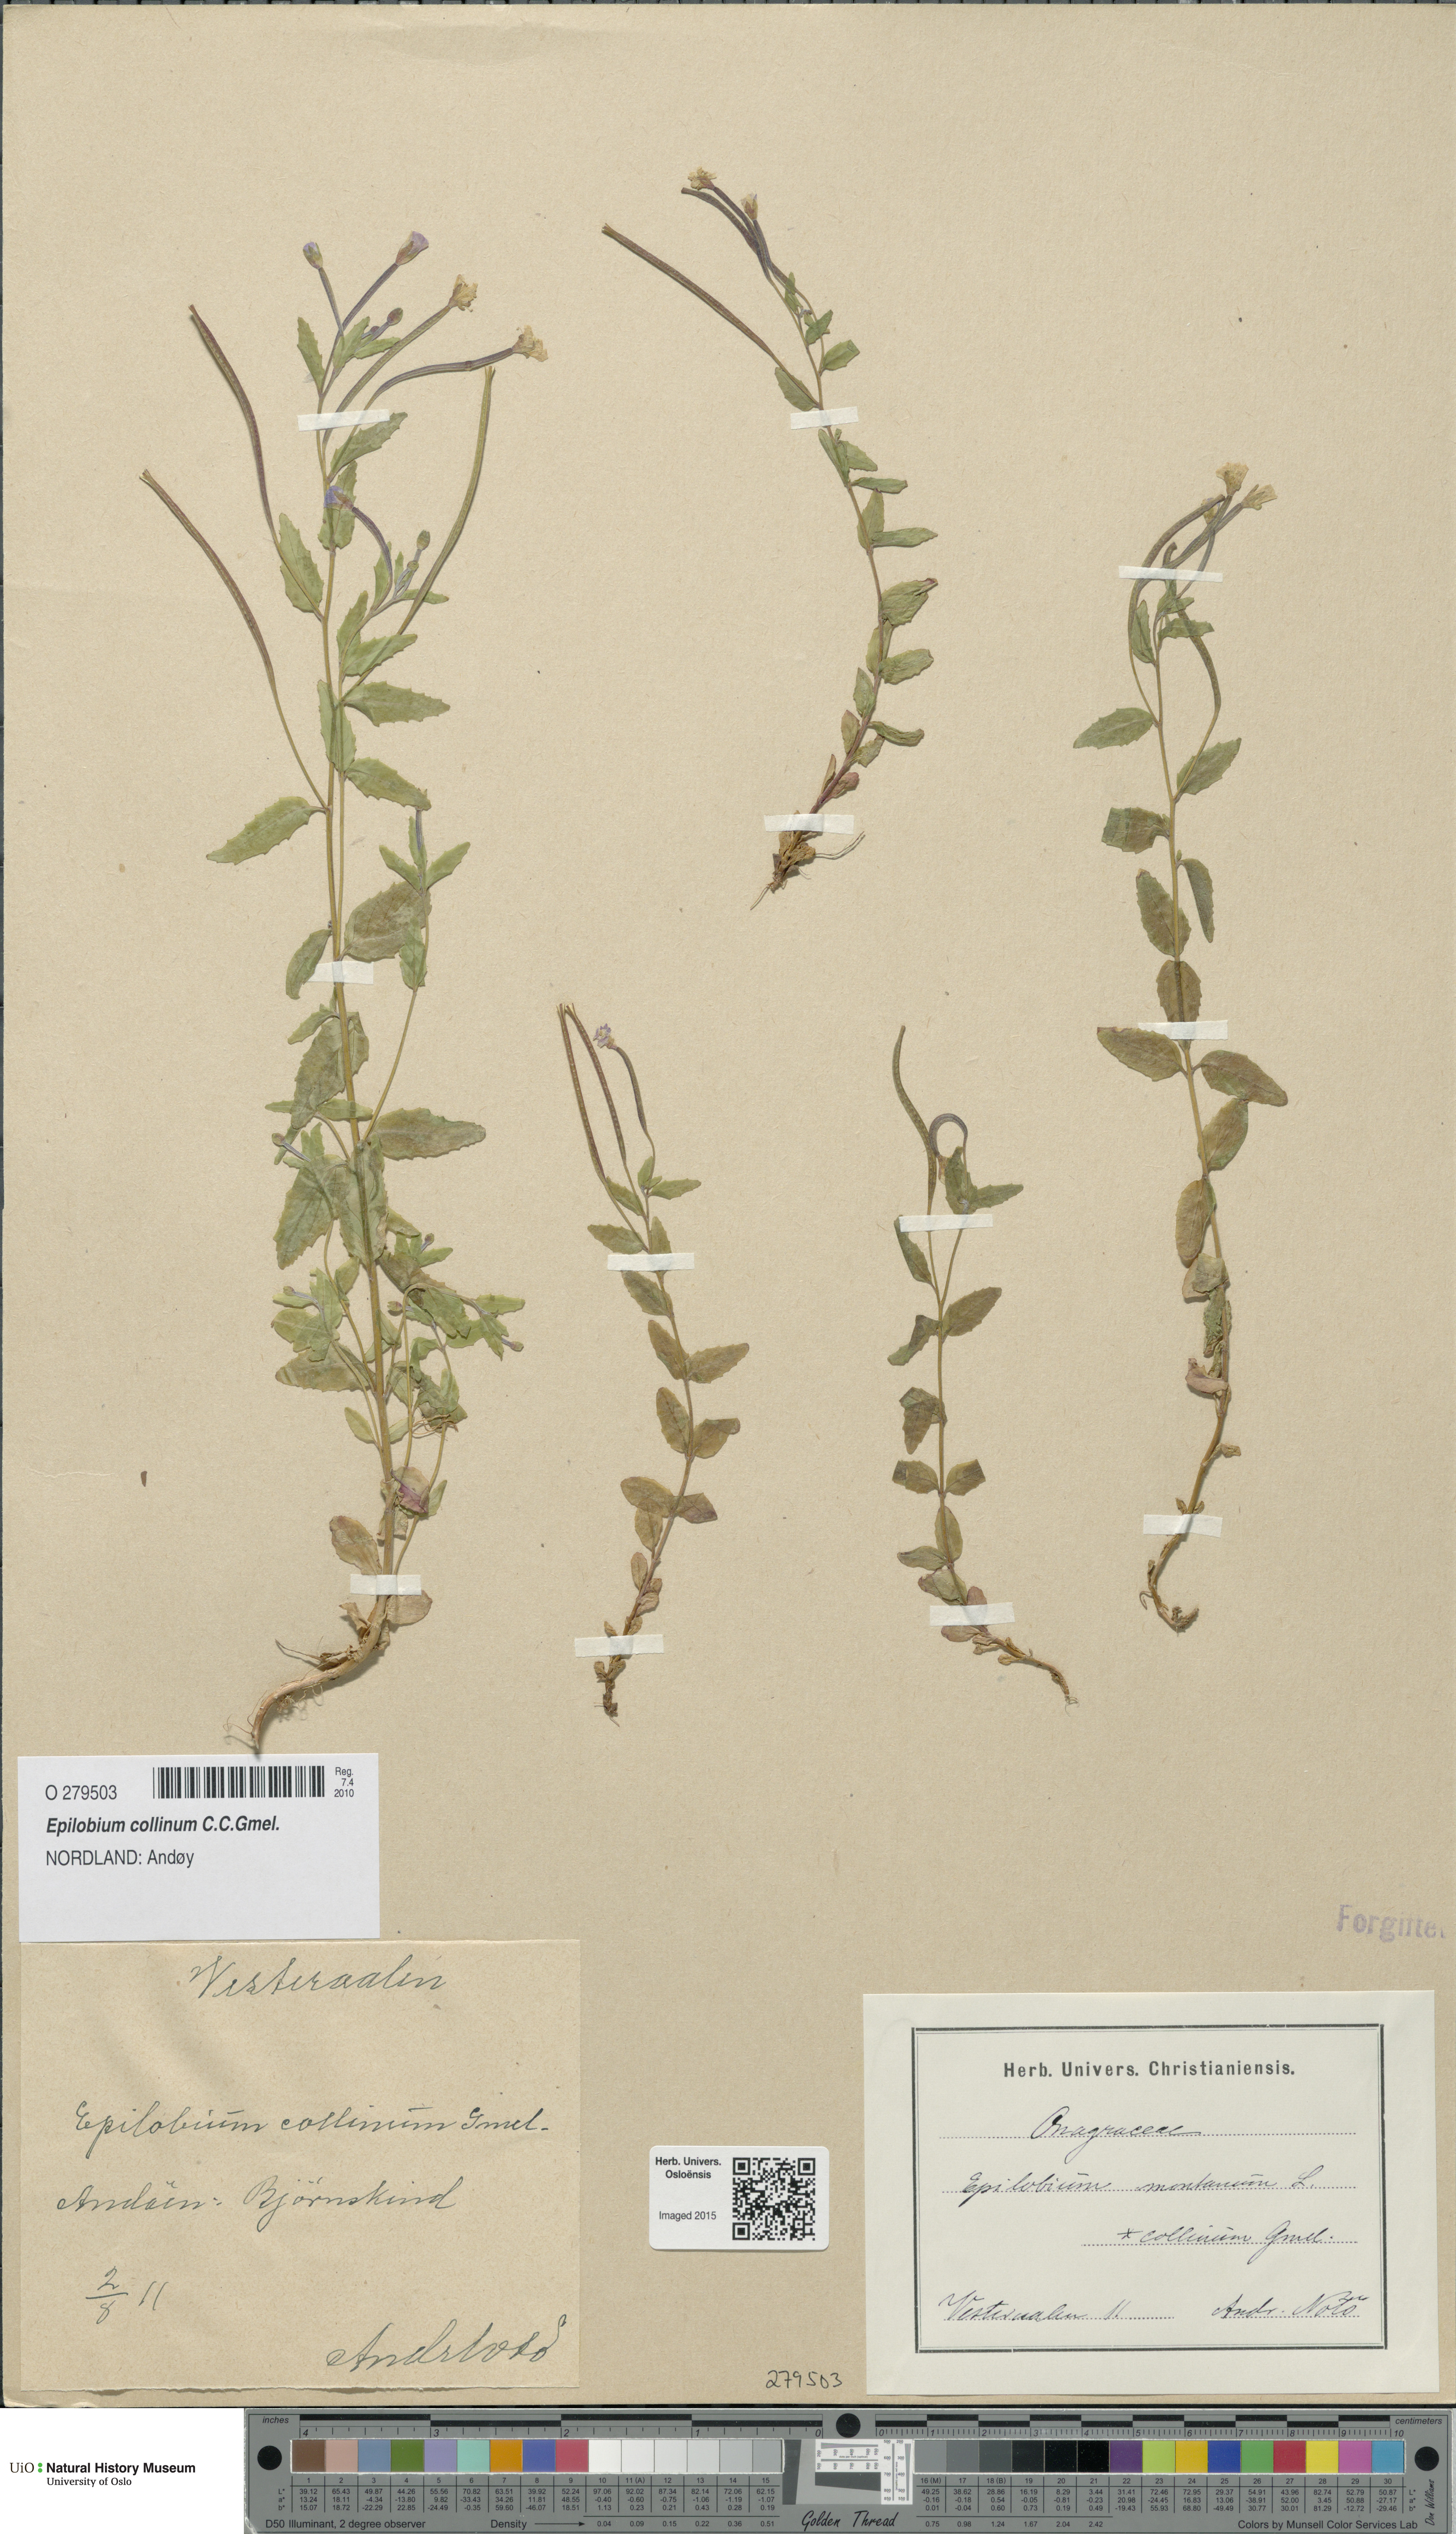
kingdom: Plantae
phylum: Tracheophyta
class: Magnoliopsida
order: Myrtales
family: Onagraceae
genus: Epilobium
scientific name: Epilobium collinum
